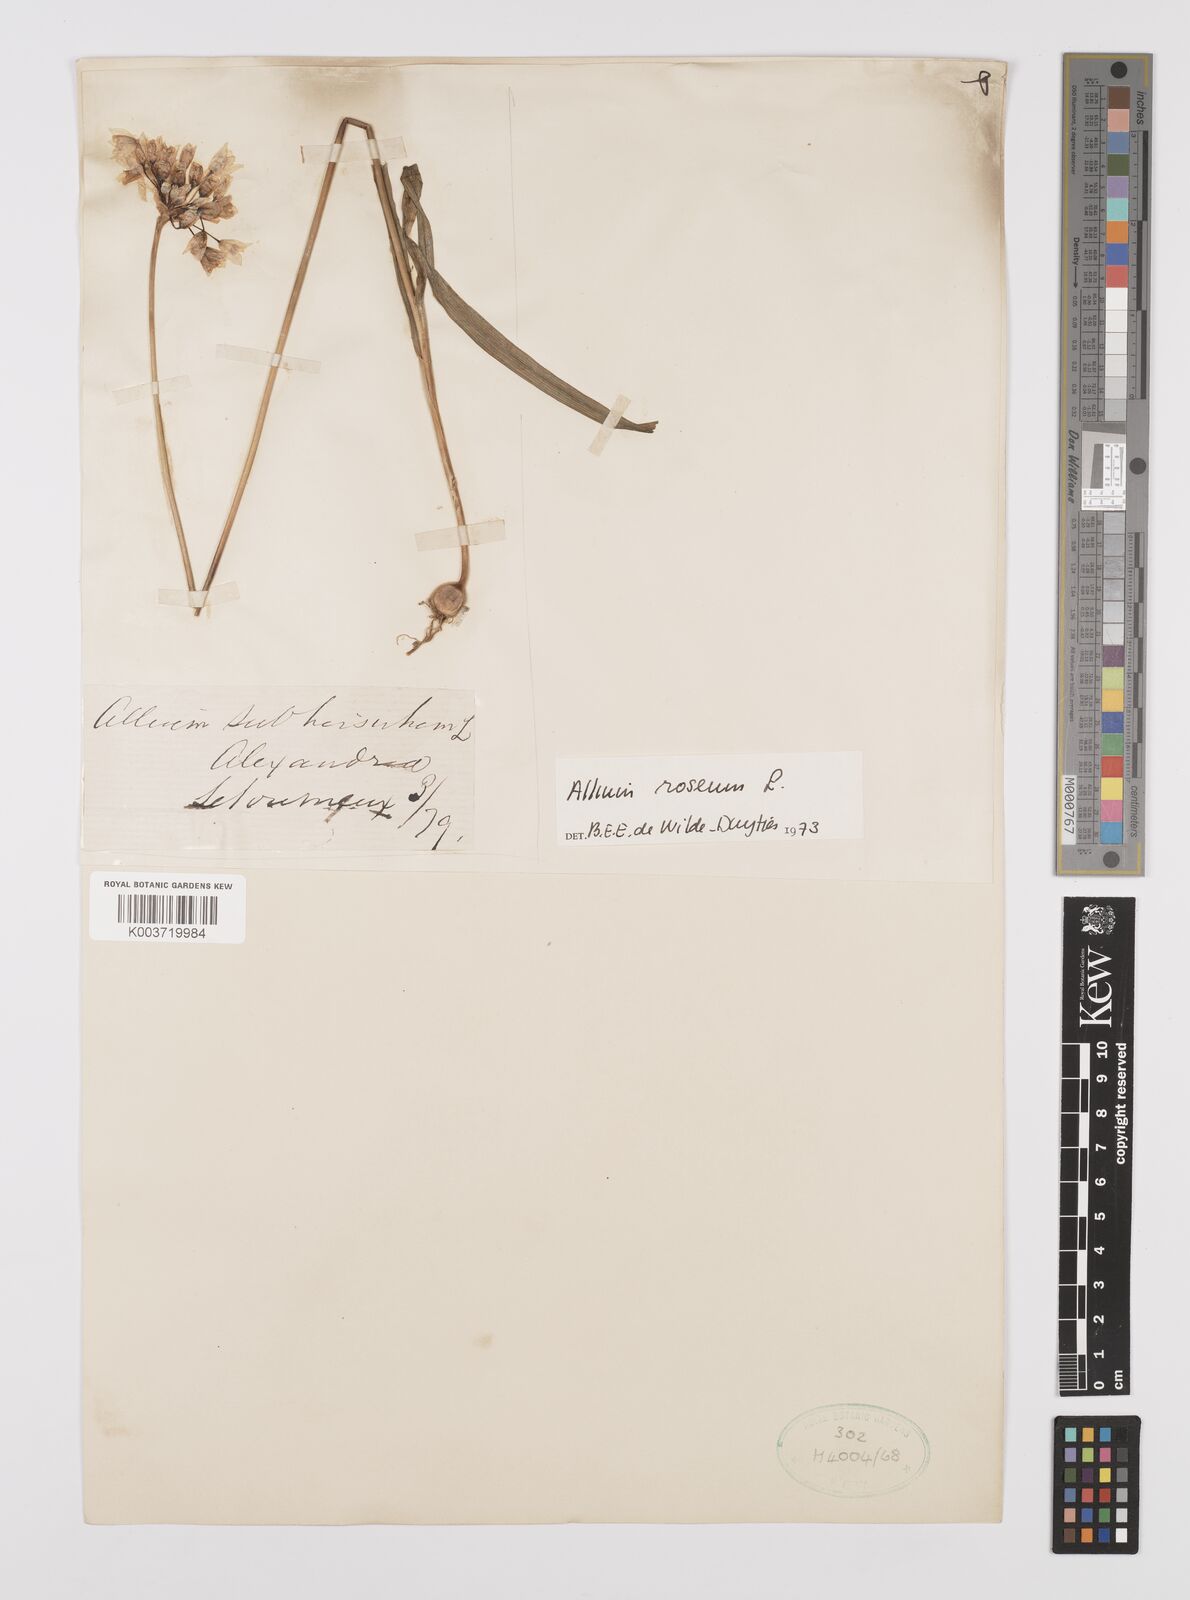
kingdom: Plantae
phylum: Tracheophyta
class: Liliopsida
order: Asparagales
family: Amaryllidaceae
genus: Allium
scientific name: Allium roseum
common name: Rosy garlic
